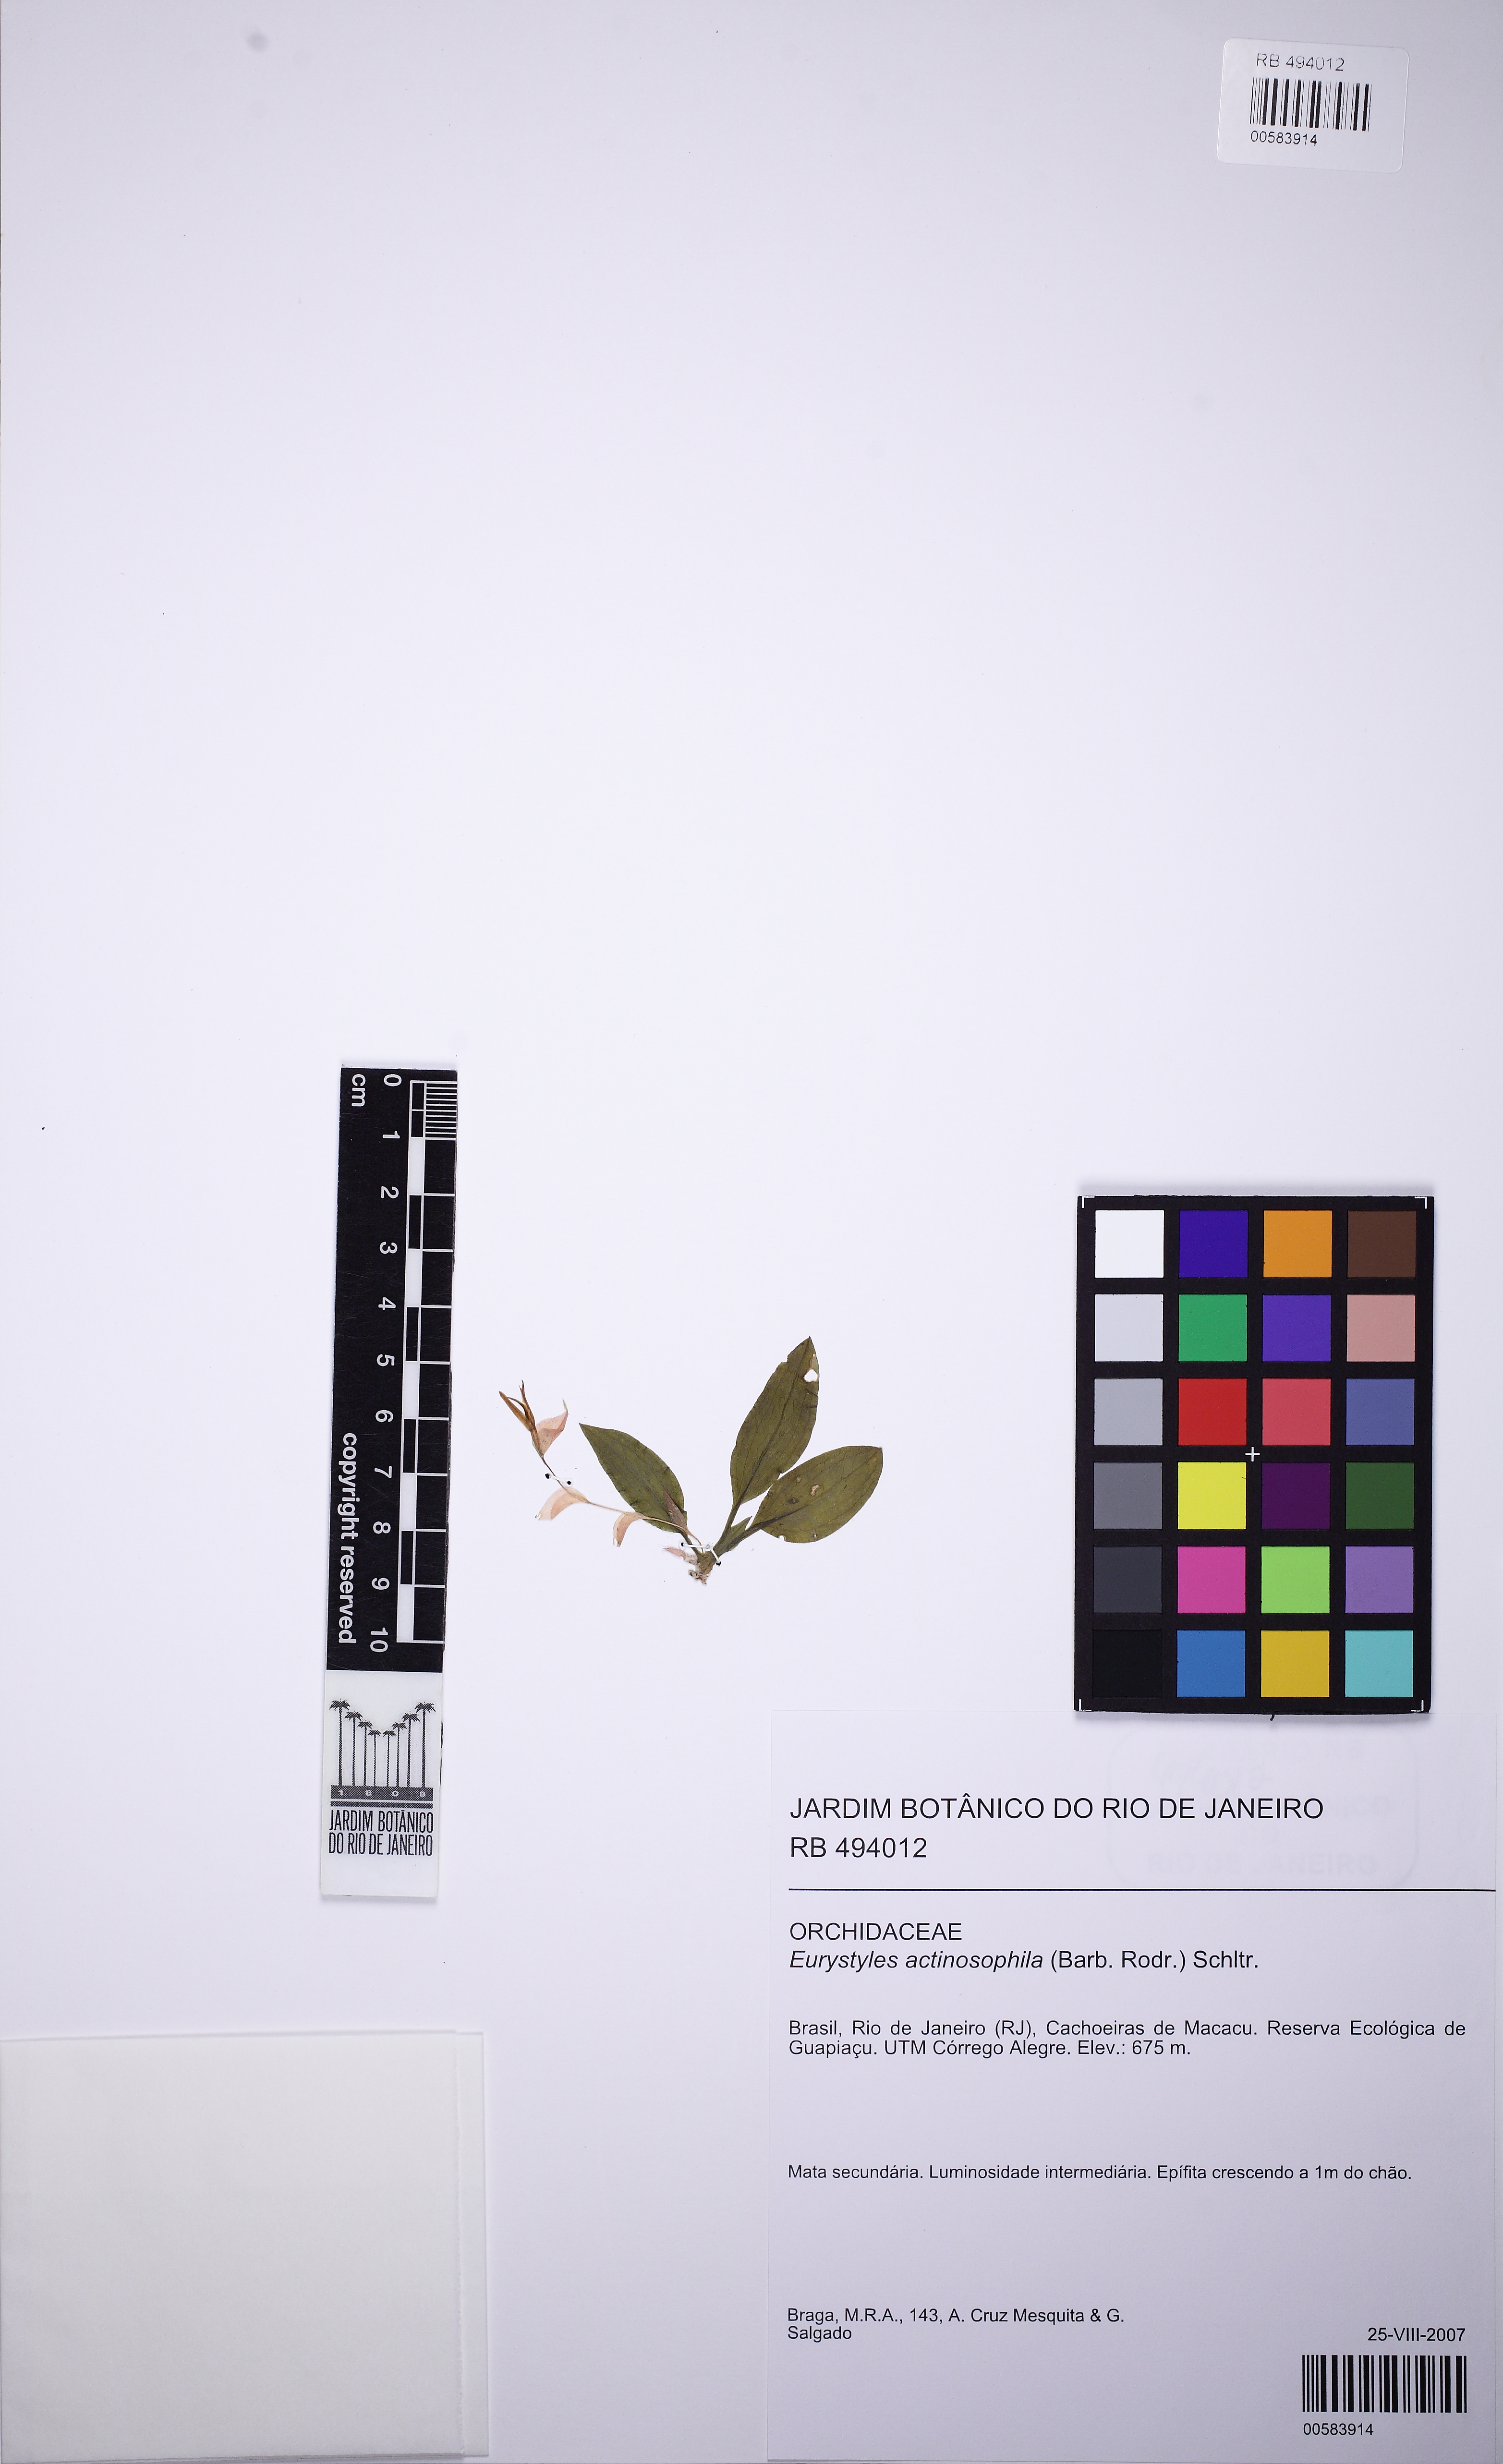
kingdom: Plantae
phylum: Tracheophyta
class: Liliopsida
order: Asparagales
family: Orchidaceae
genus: Eurystyles
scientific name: Eurystyles actinosophila
